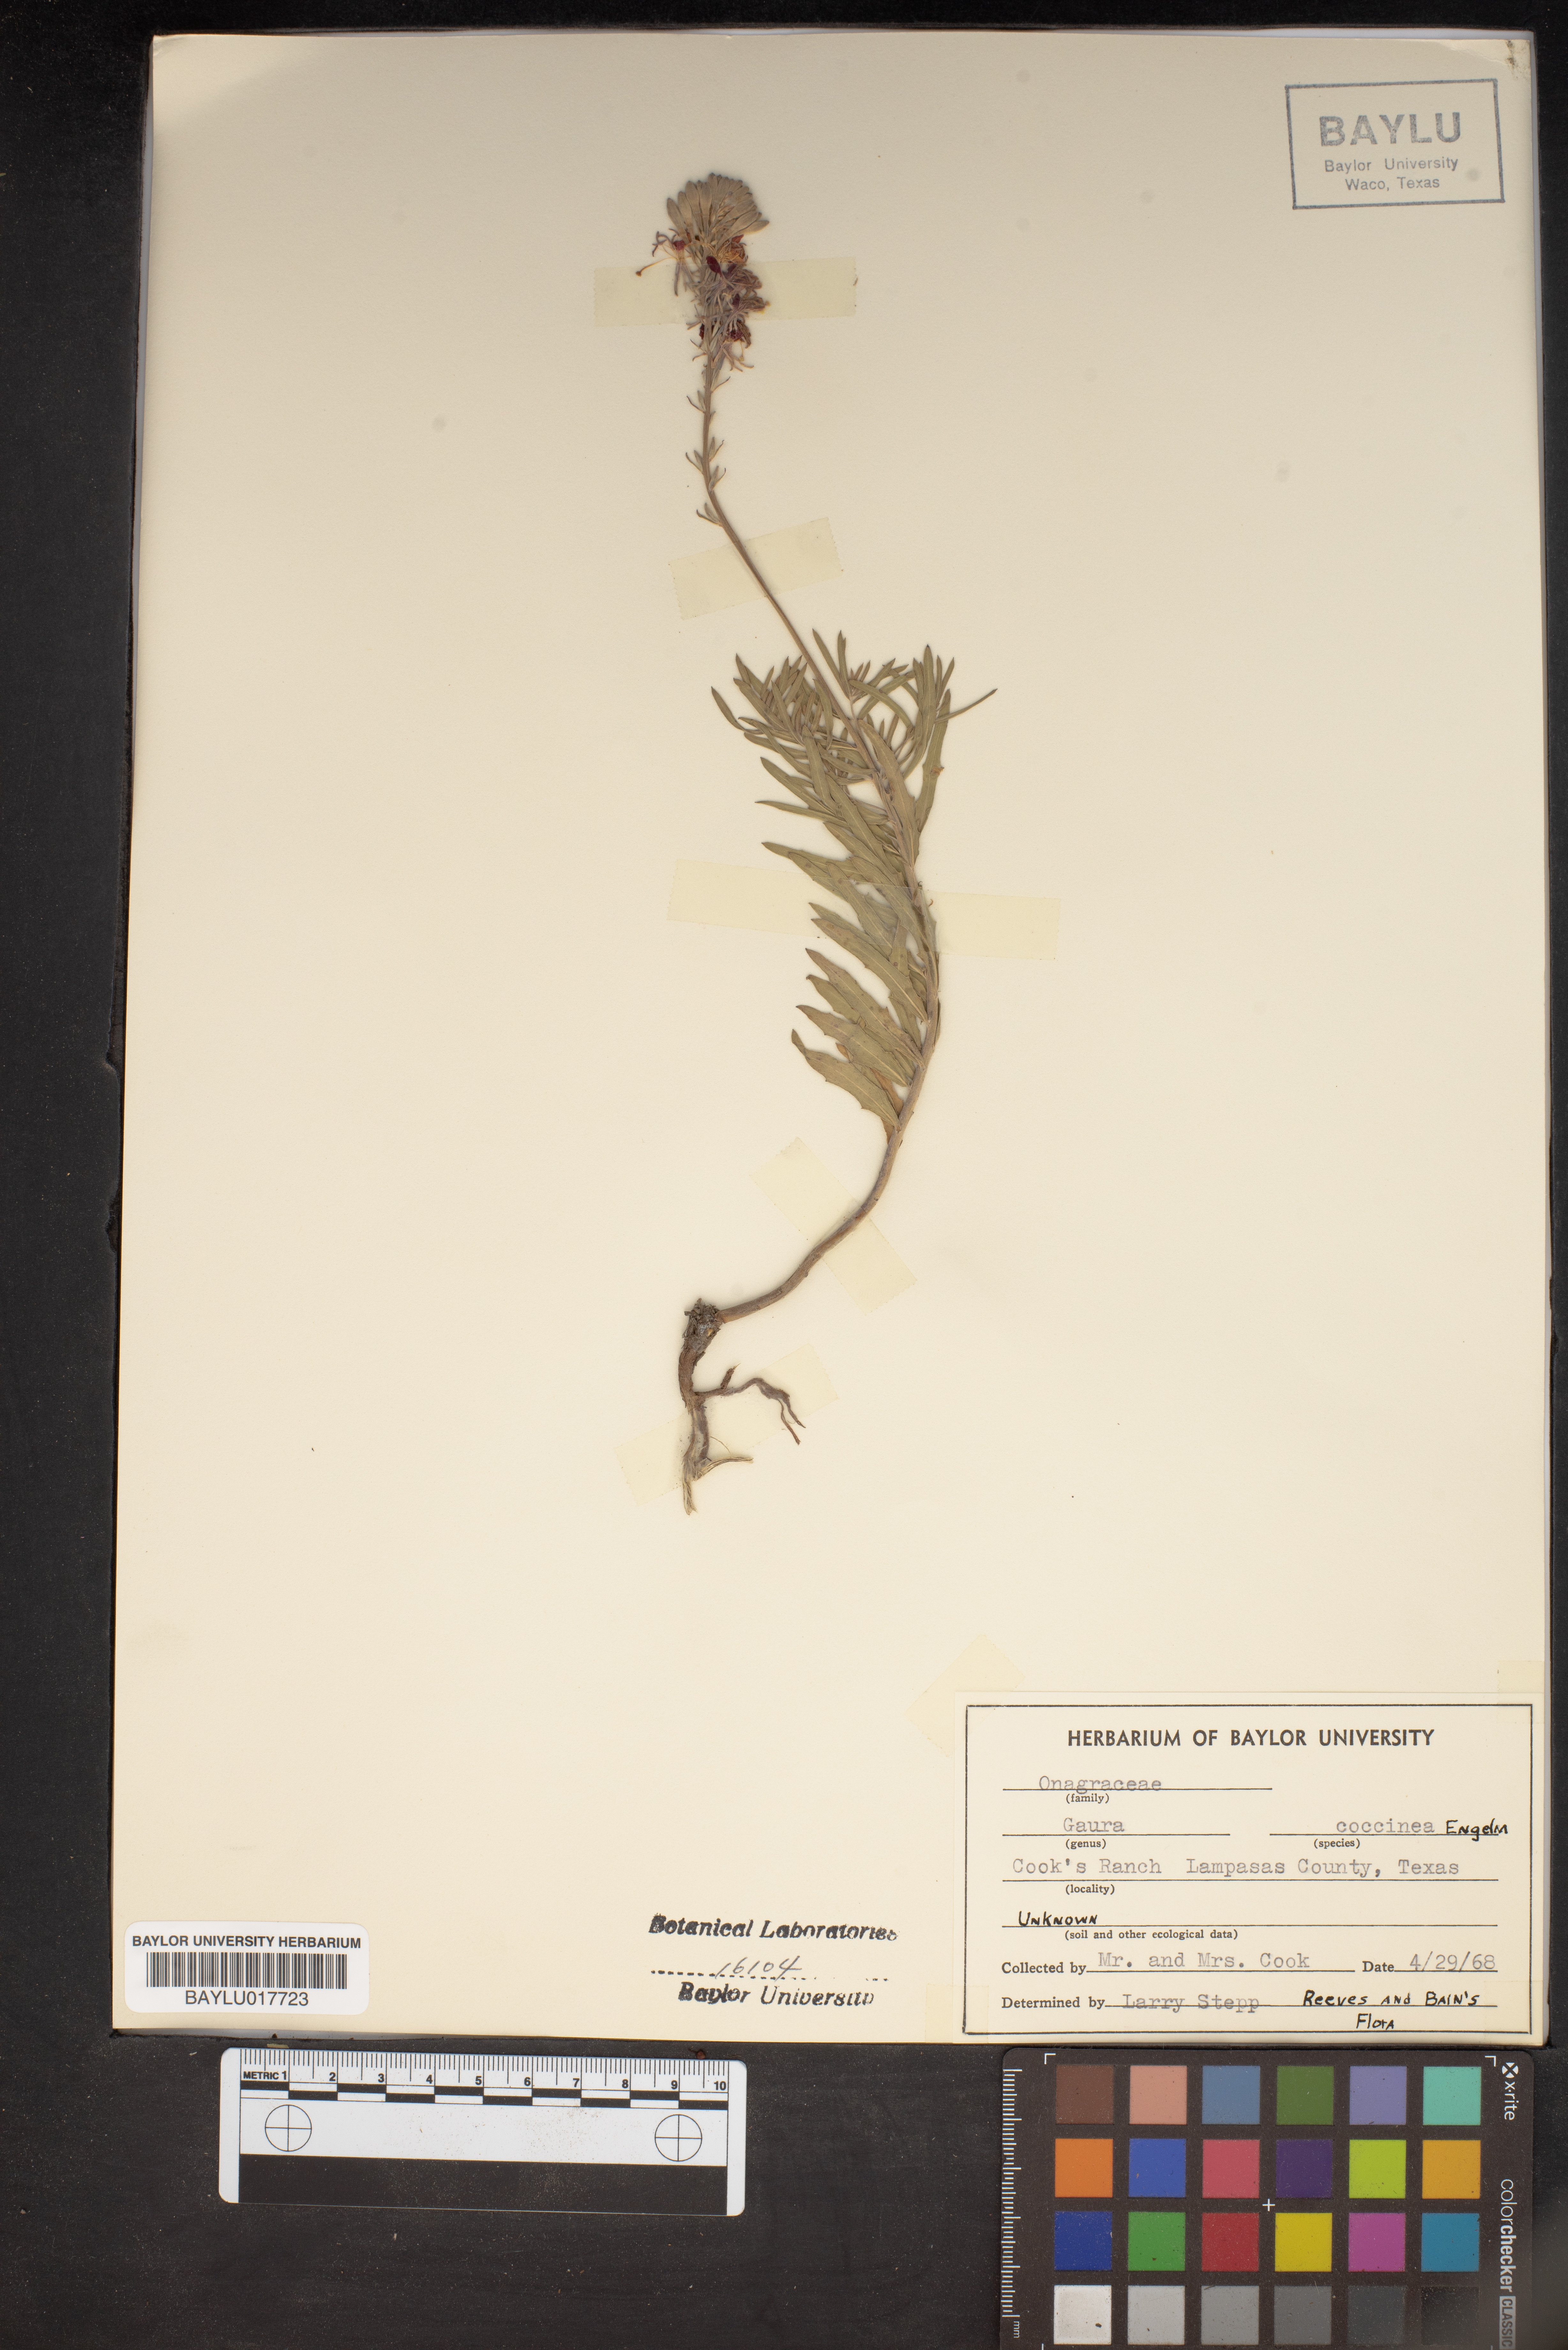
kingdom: Plantae
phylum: Tracheophyta
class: Magnoliopsida
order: Myrtales
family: Onagraceae
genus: Oenothera
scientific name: Oenothera suffrutescens
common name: Scarlet beeblossom
